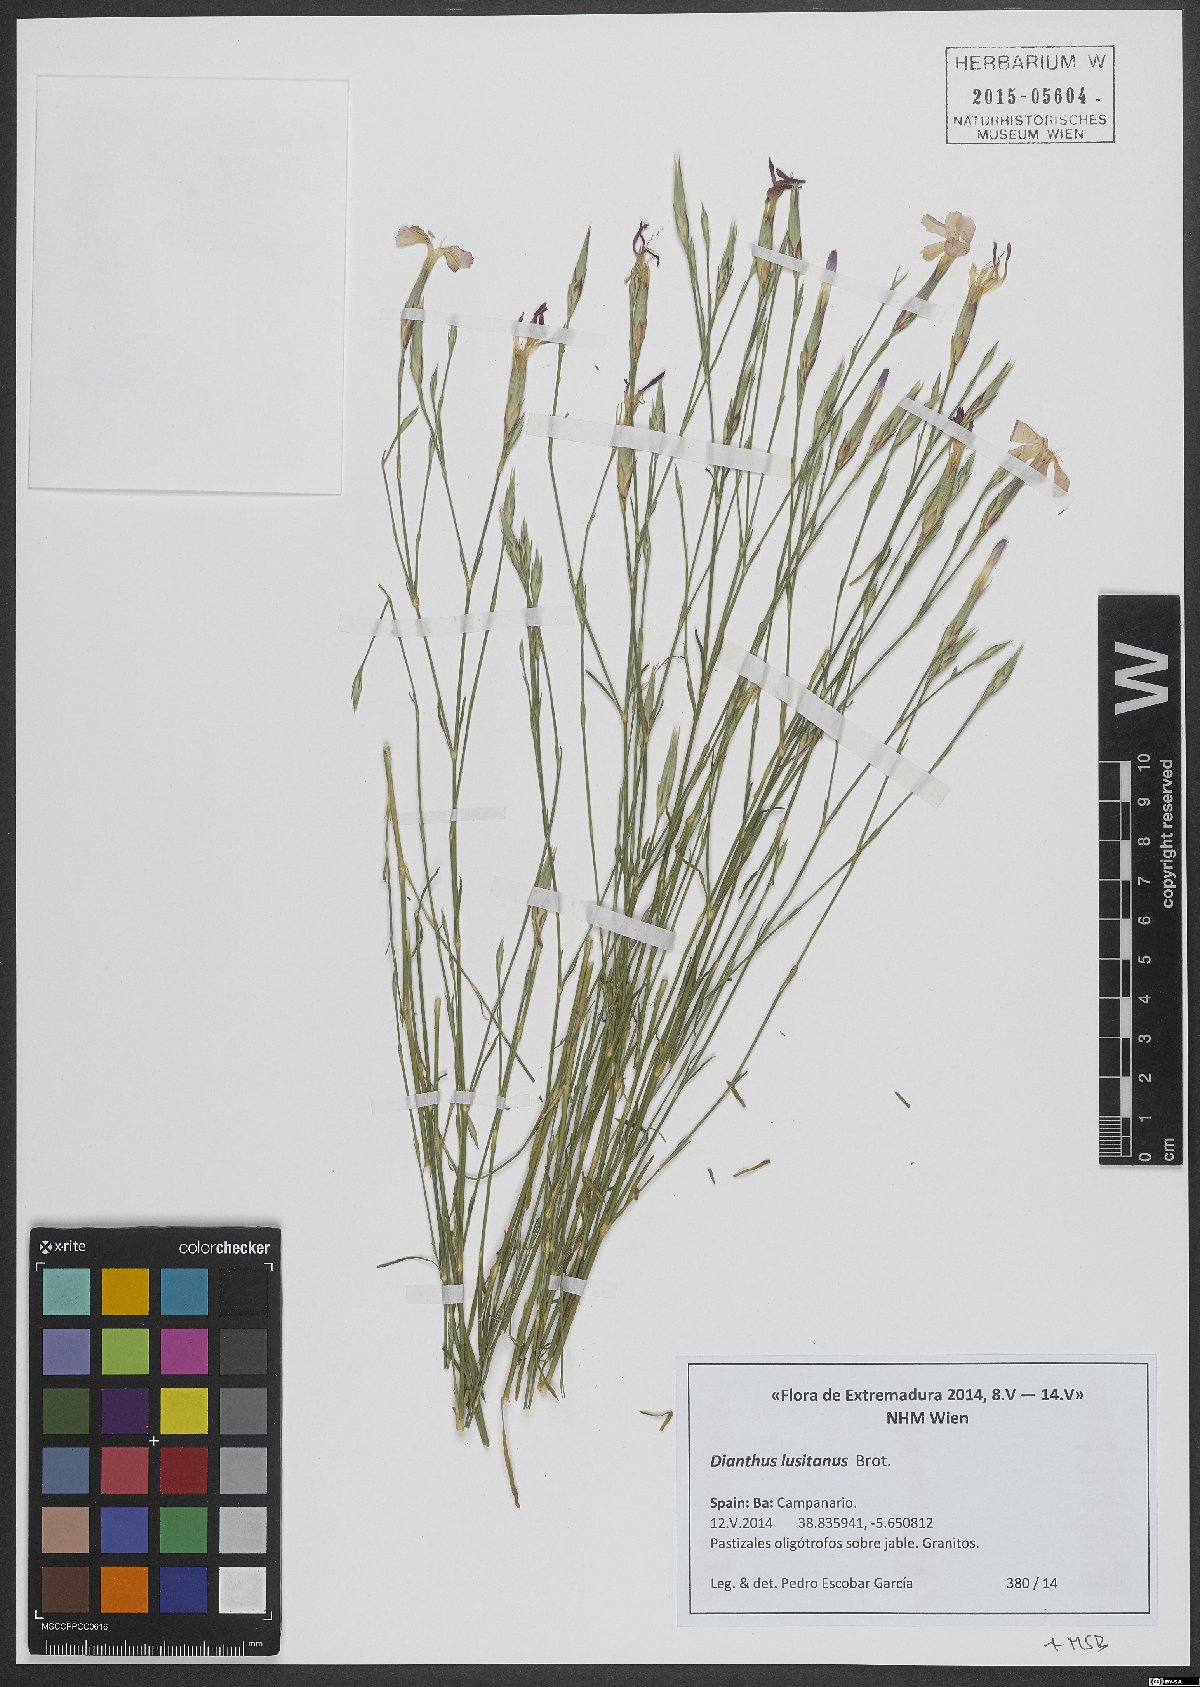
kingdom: Plantae
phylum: Tracheophyta
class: Magnoliopsida
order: Caryophyllales
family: Caryophyllaceae
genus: Dianthus
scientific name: Dianthus lusitanus
